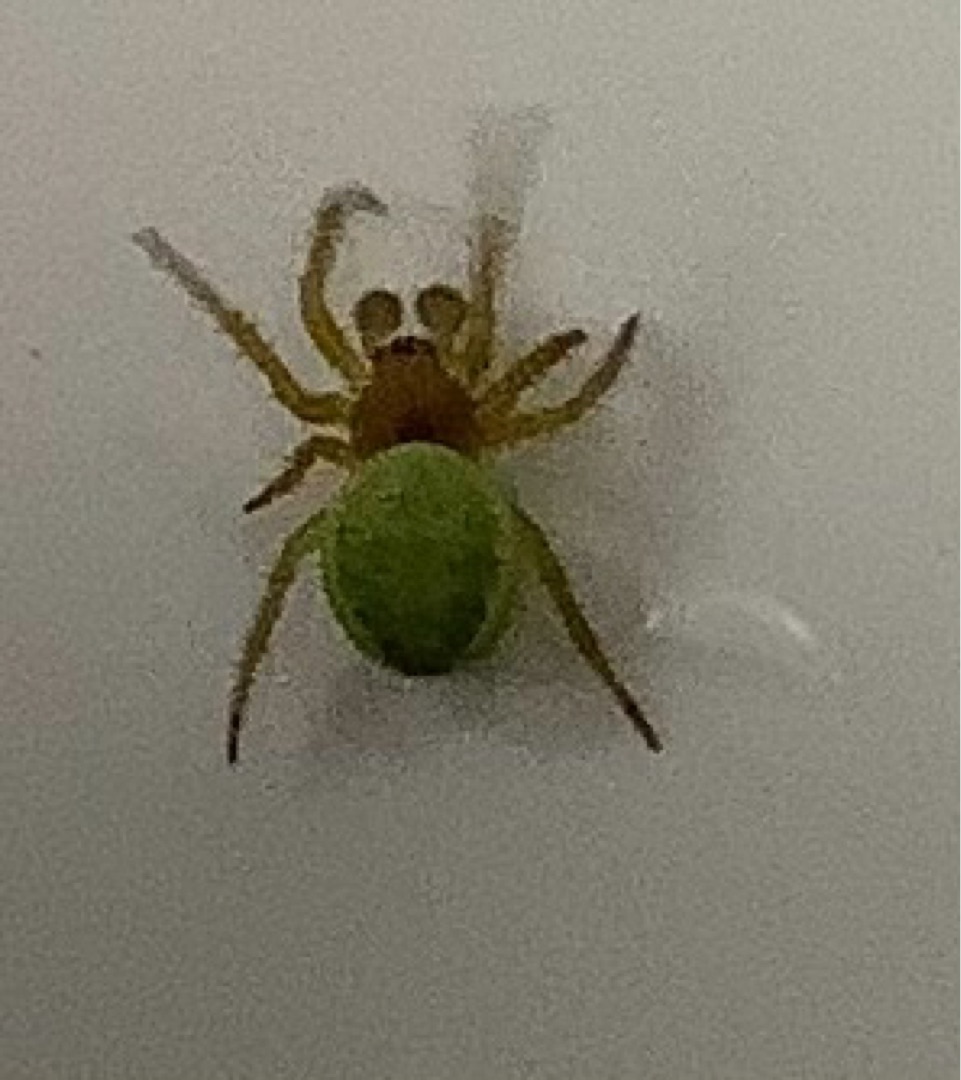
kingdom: Animalia
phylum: Arthropoda
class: Arachnida
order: Araneae
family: Araneidae
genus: Araniella
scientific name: Araniella
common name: Agurkeedderkopslægten
